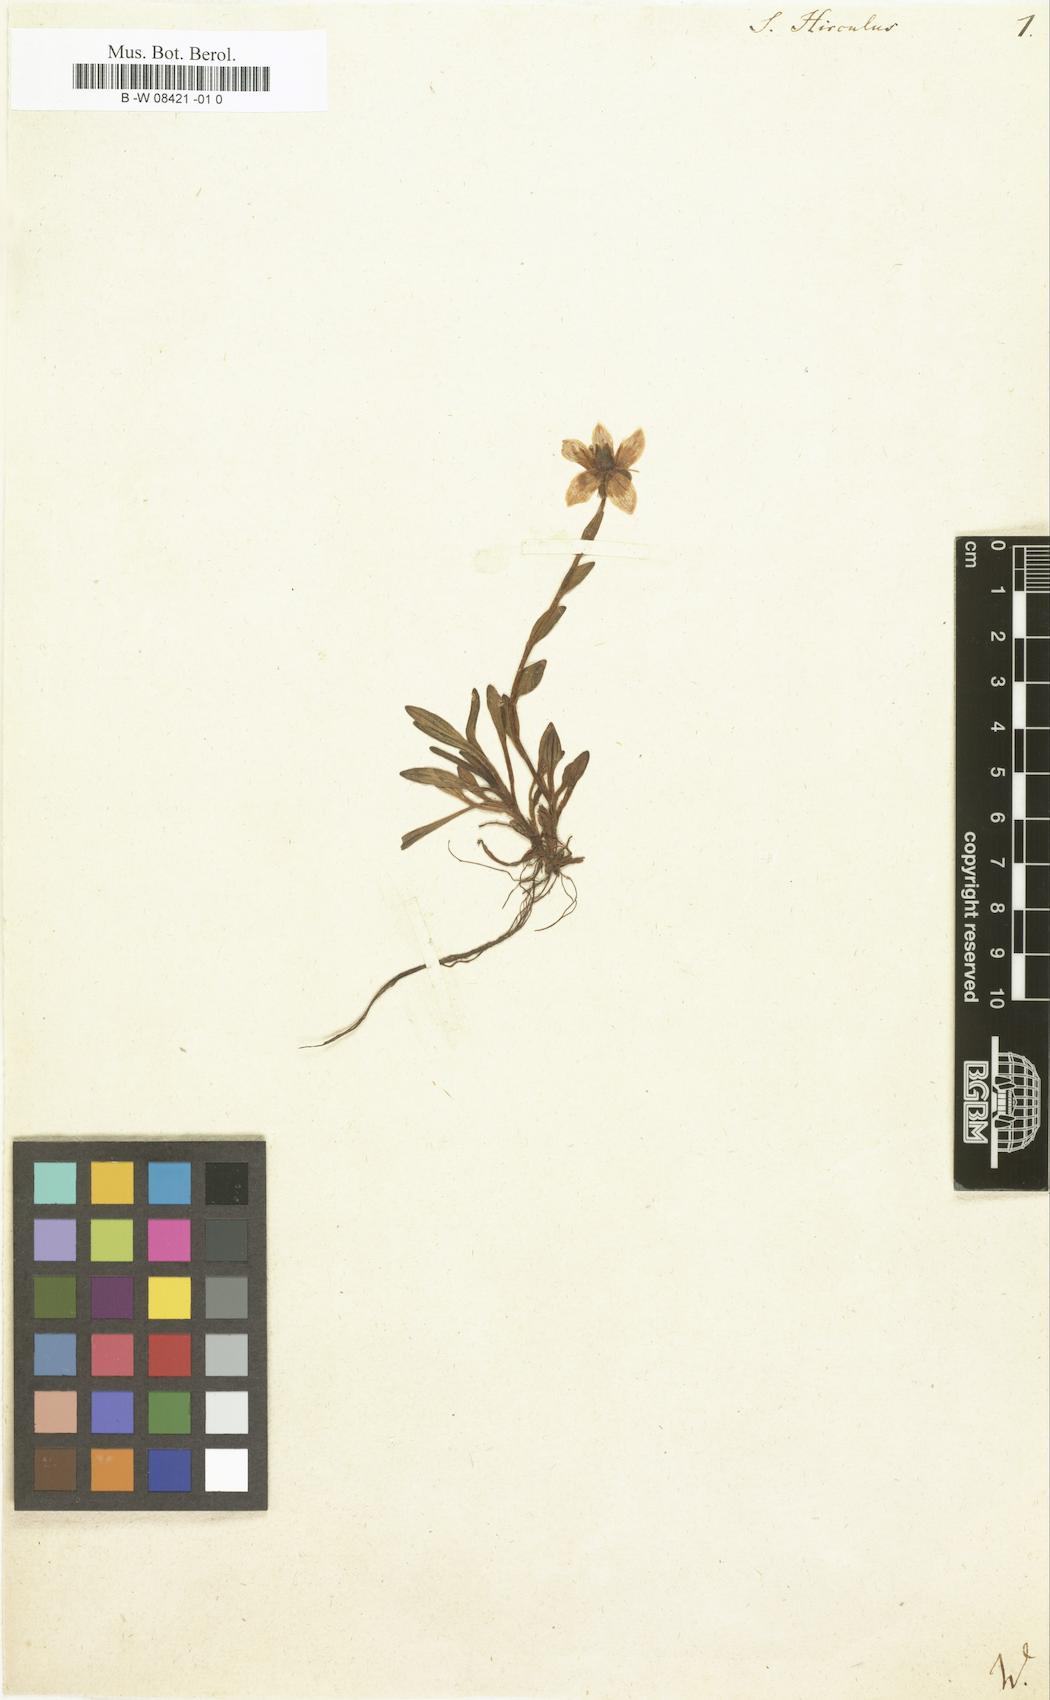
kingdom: Plantae
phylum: Tracheophyta
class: Magnoliopsida
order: Saxifragales
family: Saxifragaceae
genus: Saxifraga
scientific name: Saxifraga hirculus
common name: Yellow marsh saxifrage
